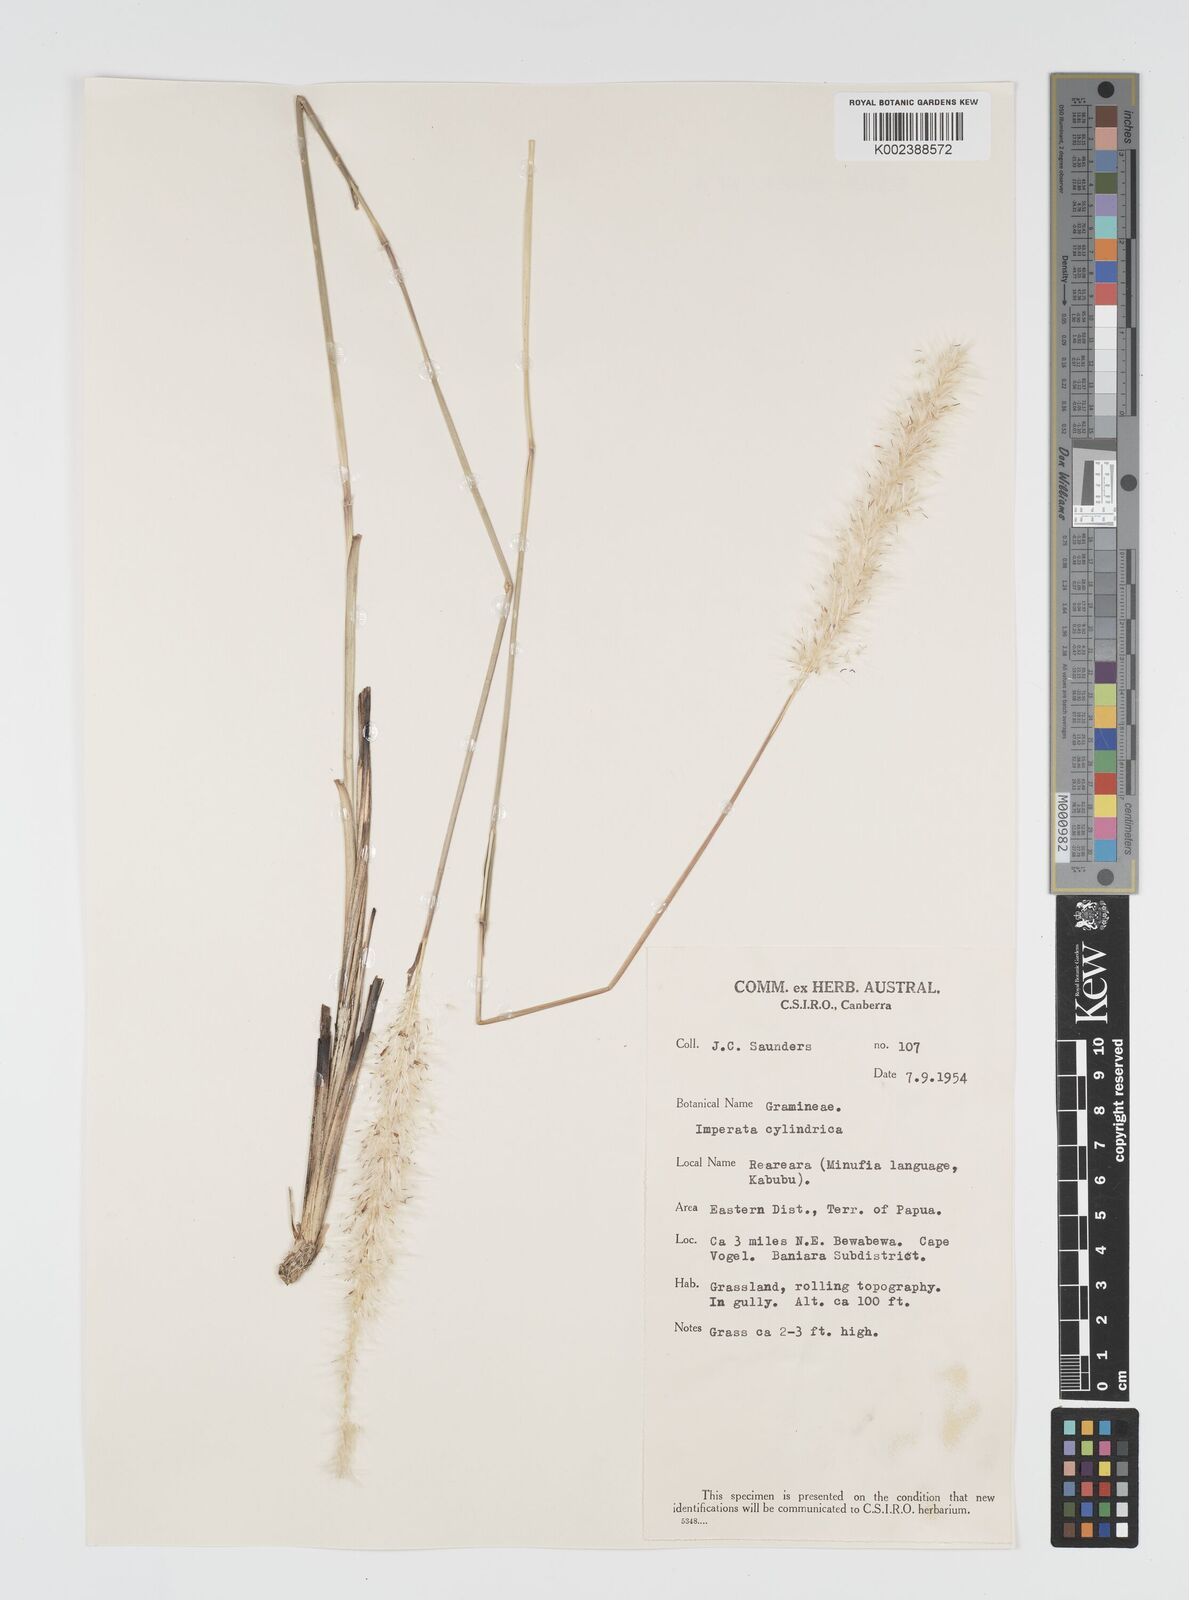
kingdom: Plantae
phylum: Tracheophyta
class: Liliopsida
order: Poales
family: Poaceae
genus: Imperata
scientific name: Imperata cylindrica
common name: Cogongrass
